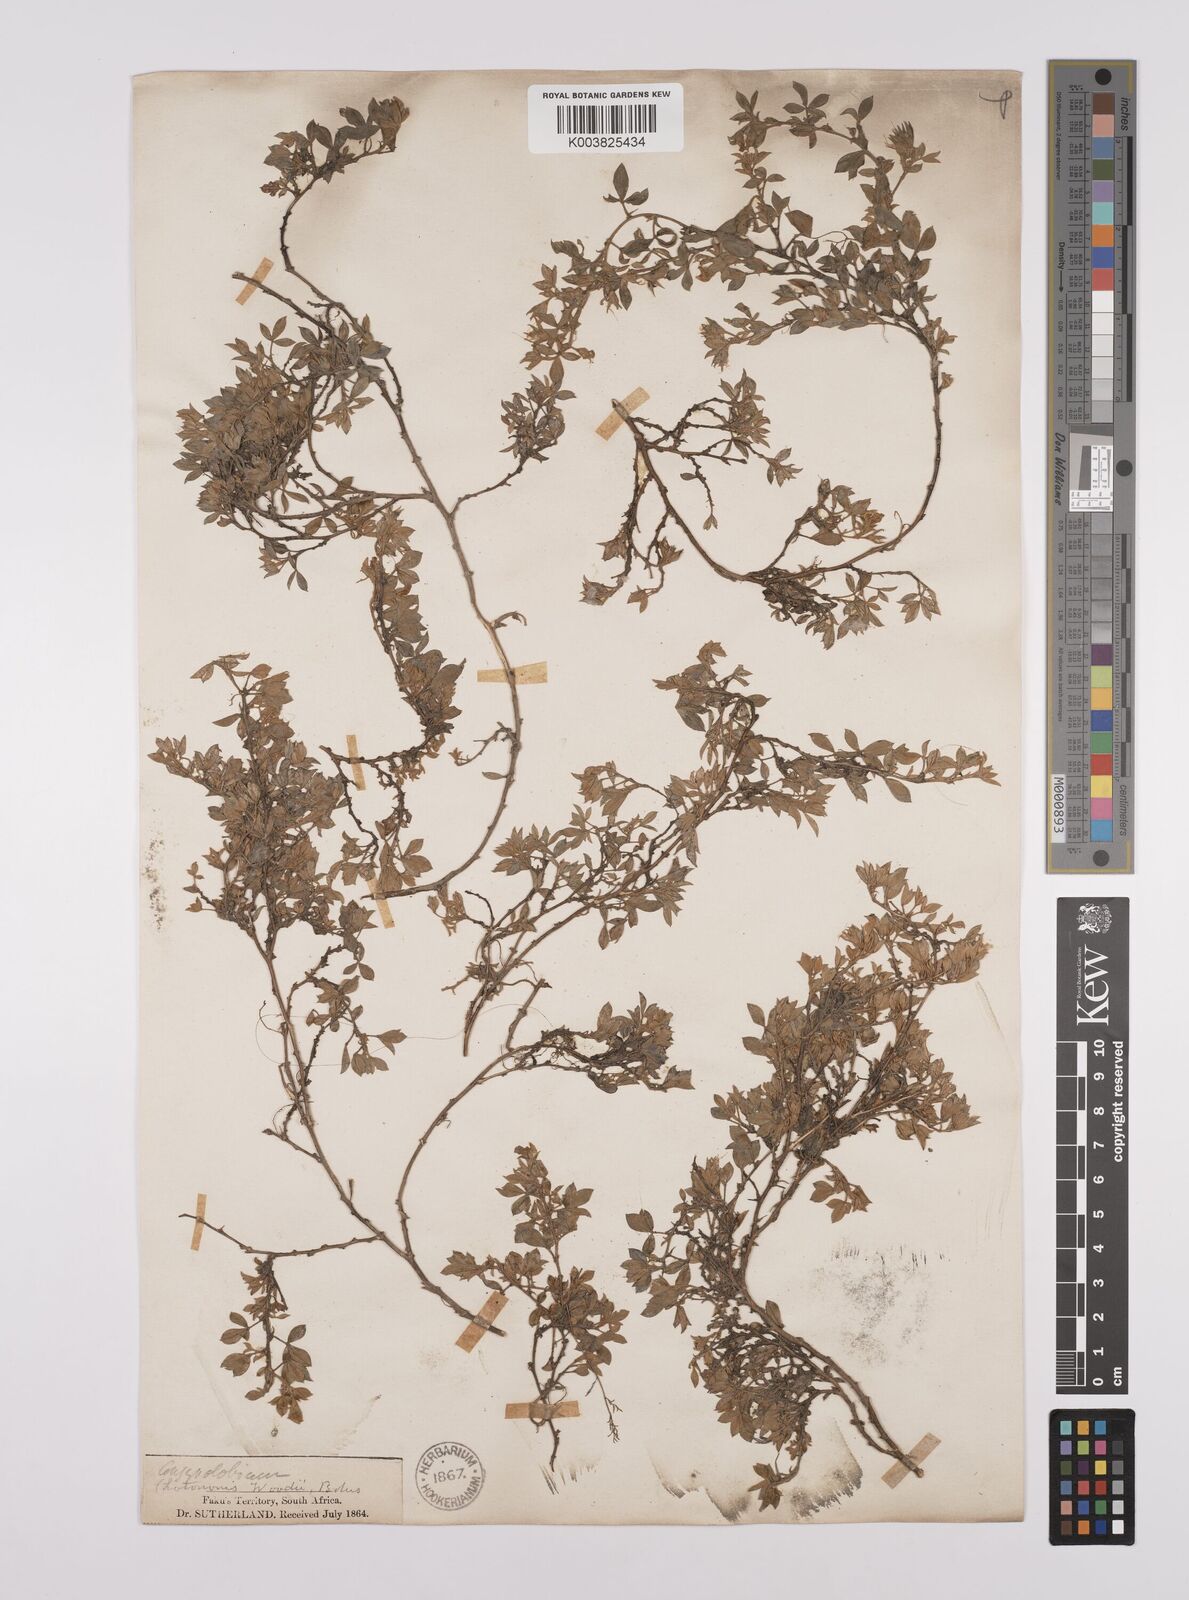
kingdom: Plantae
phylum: Tracheophyta
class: Magnoliopsida
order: Fabales
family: Fabaceae
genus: Lotononis
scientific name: Lotononis laxa
